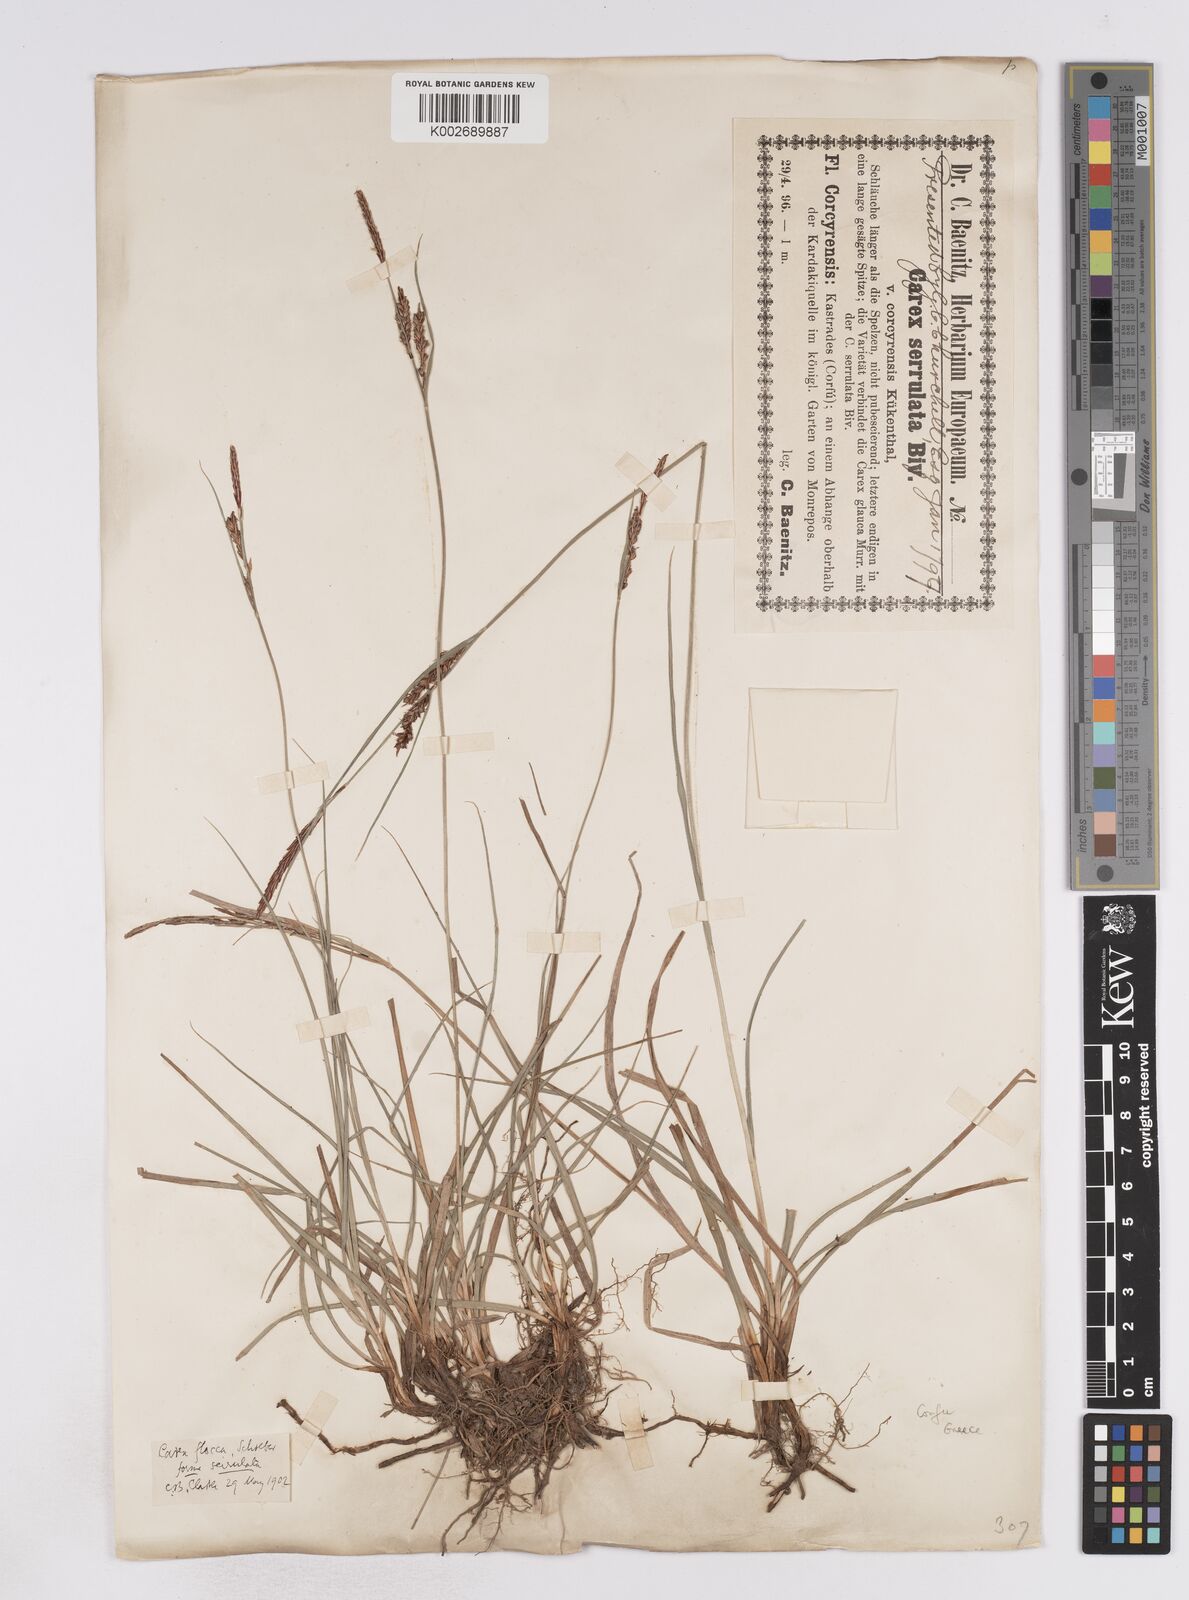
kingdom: Plantae
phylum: Tracheophyta
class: Liliopsida
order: Poales
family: Cyperaceae
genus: Carex
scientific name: Carex flacca
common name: Glaucous sedge
